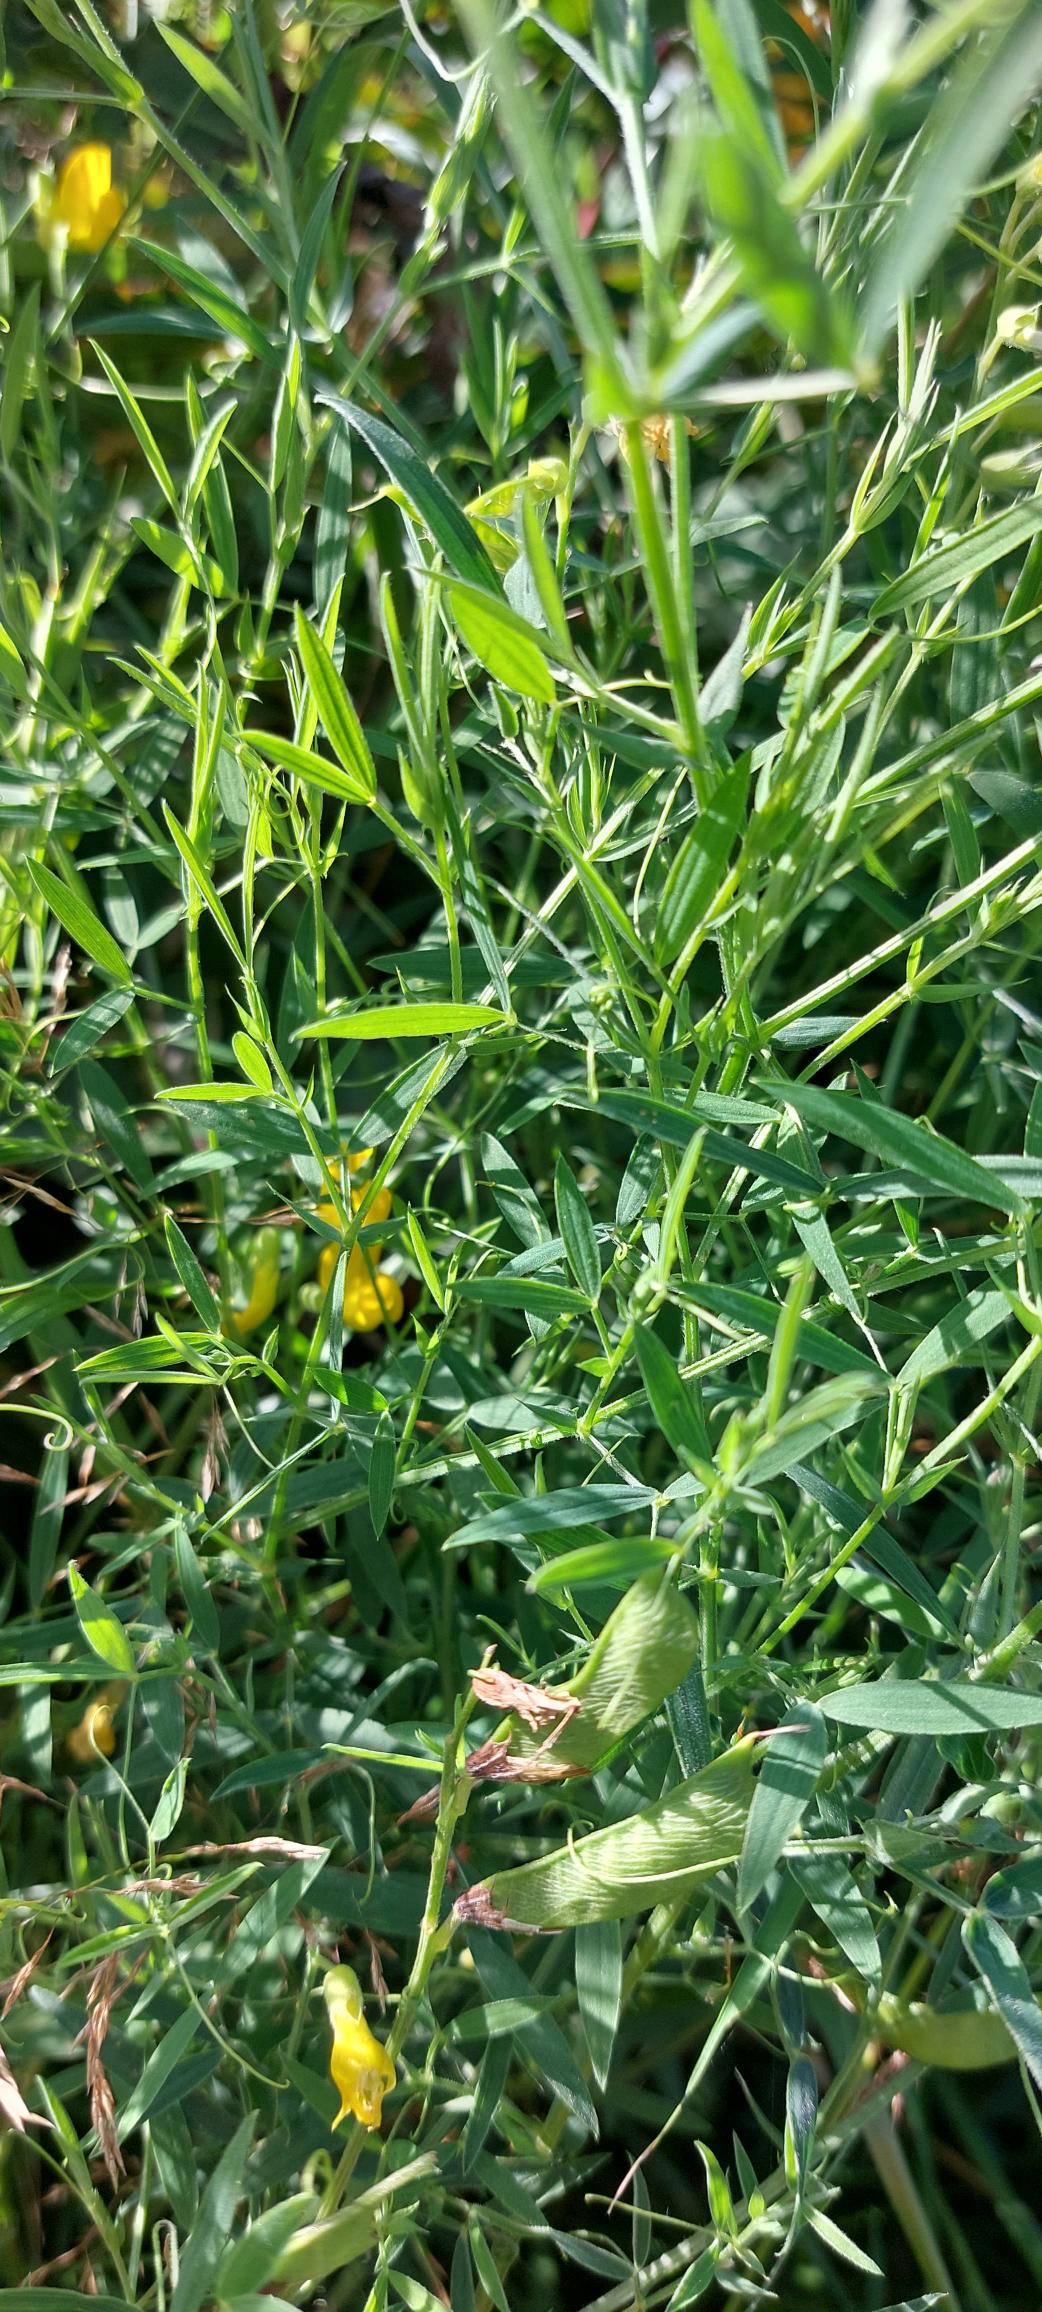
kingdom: Plantae
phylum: Tracheophyta
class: Magnoliopsida
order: Fabales
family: Fabaceae
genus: Lathyrus
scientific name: Lathyrus pratensis
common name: Gul fladbælg
